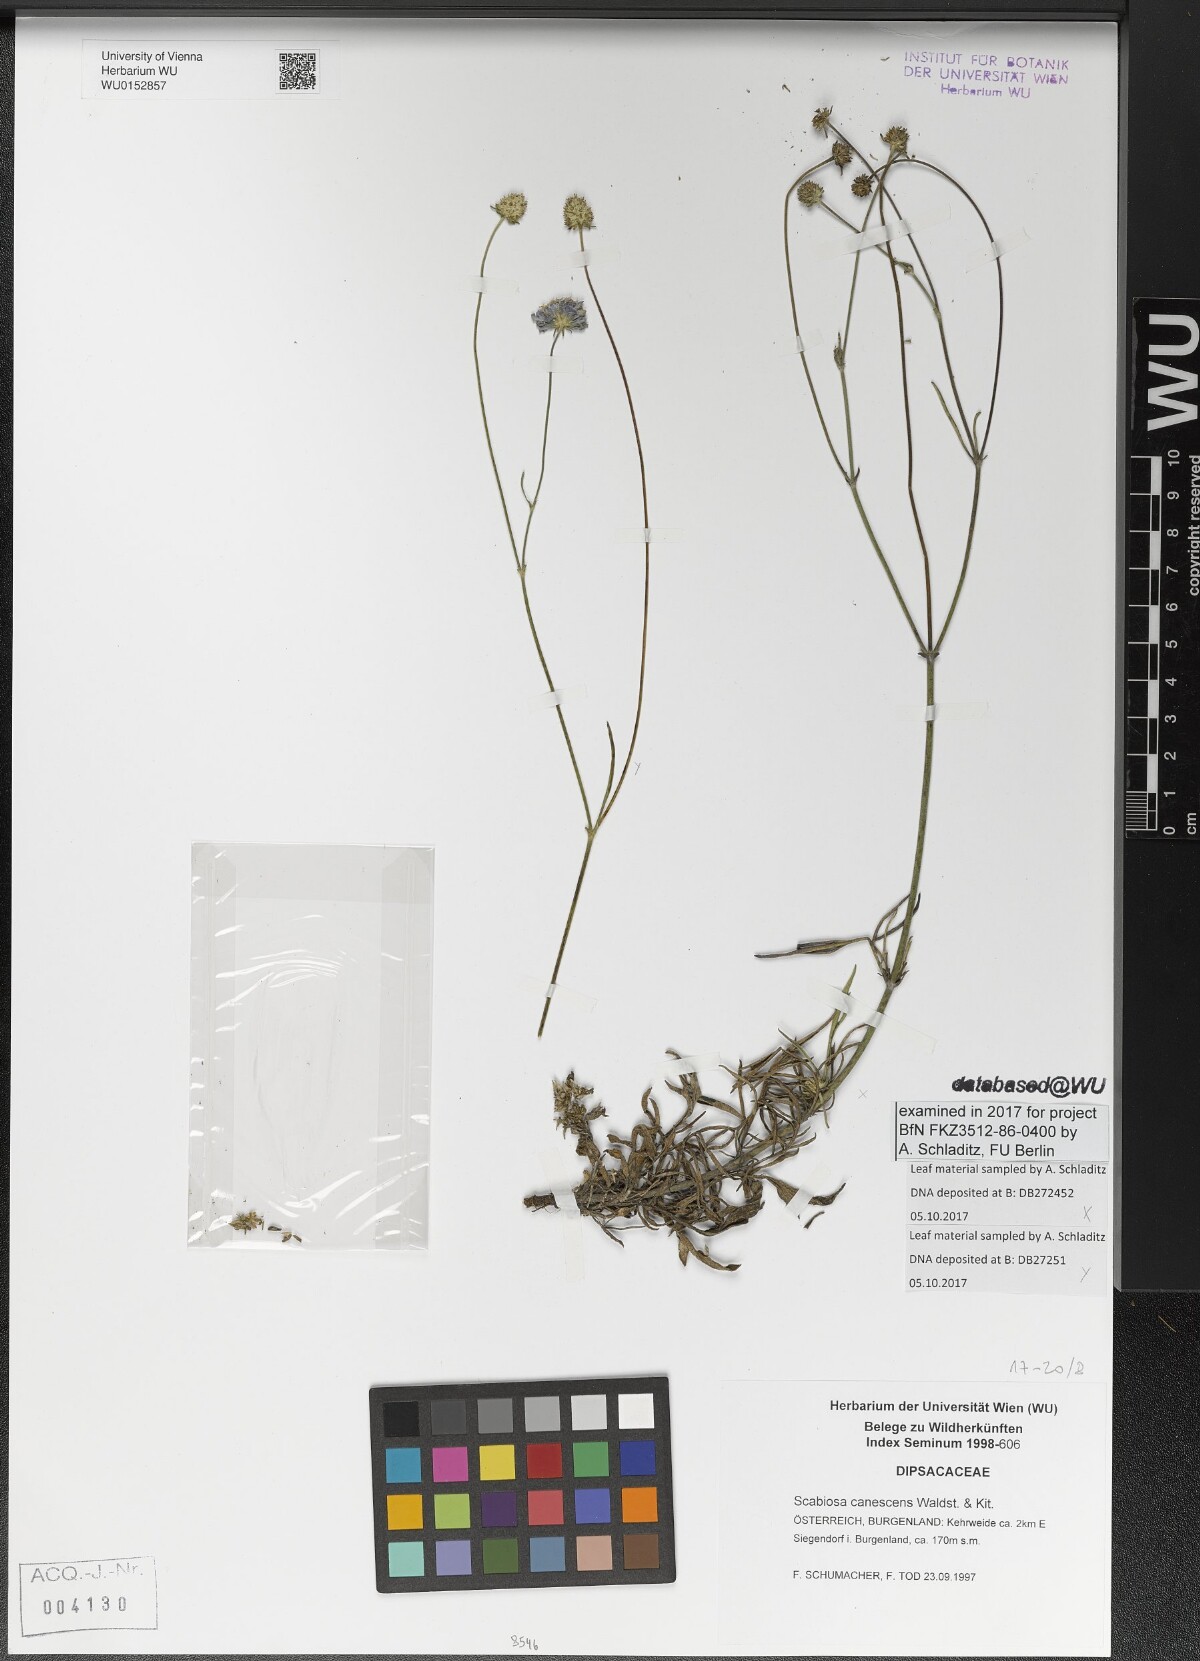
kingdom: Plantae
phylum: Tracheophyta
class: Magnoliopsida
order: Dipsacales
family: Caprifoliaceae
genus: Scabiosa
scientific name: Scabiosa canescens
